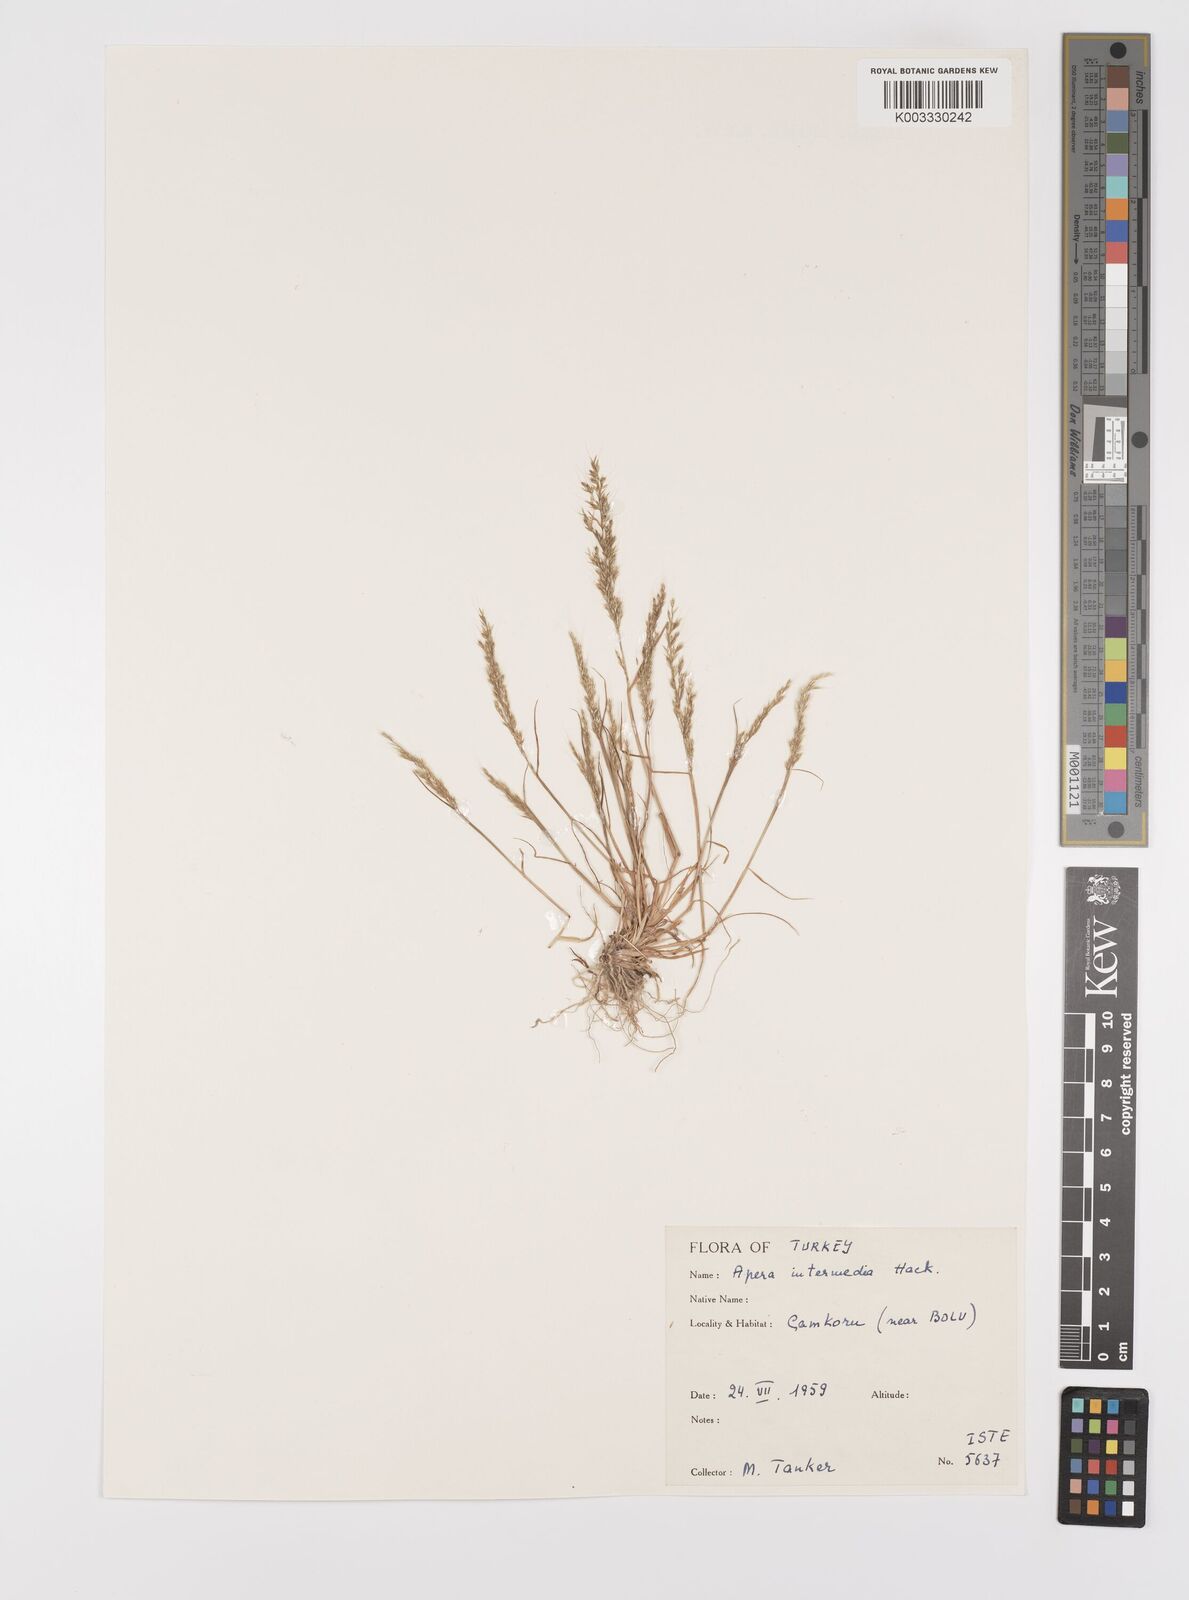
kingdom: Plantae
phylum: Tracheophyta
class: Liliopsida
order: Poales
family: Poaceae
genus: Apera
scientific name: Apera intermedia
